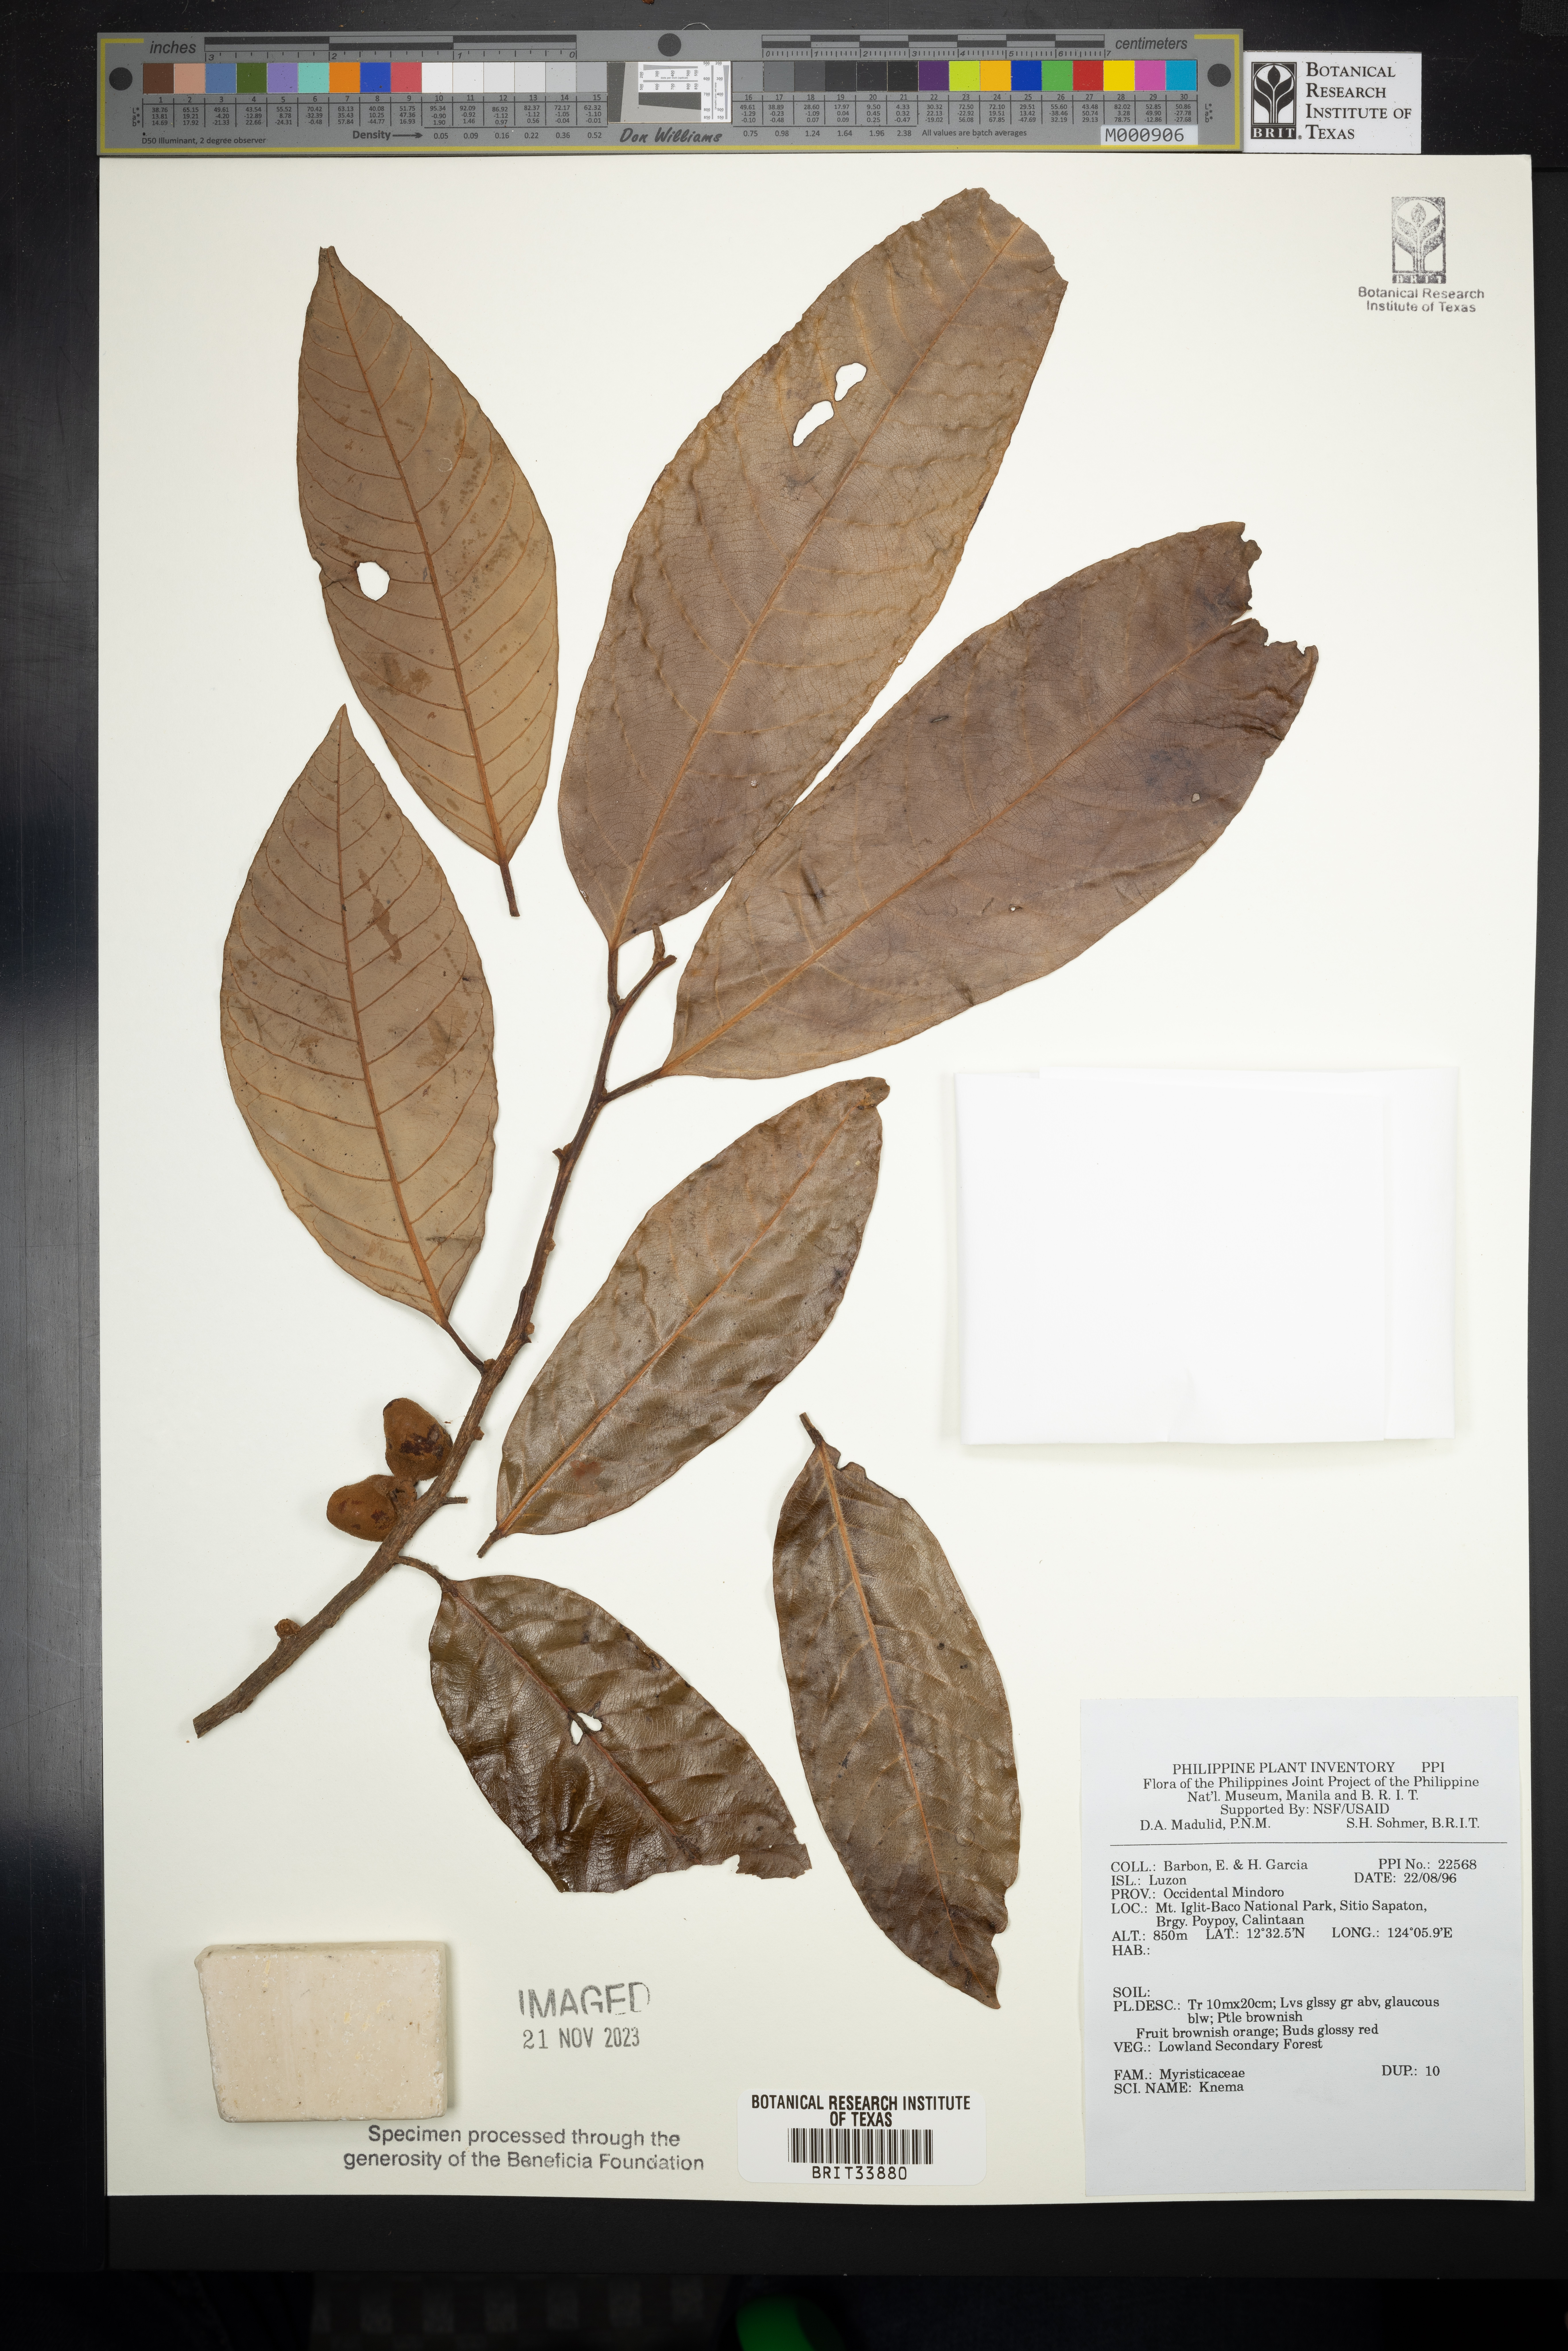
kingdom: Plantae
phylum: Tracheophyta
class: Magnoliopsida
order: Magnoliales
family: Myristicaceae
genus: Knema
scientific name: Knema
